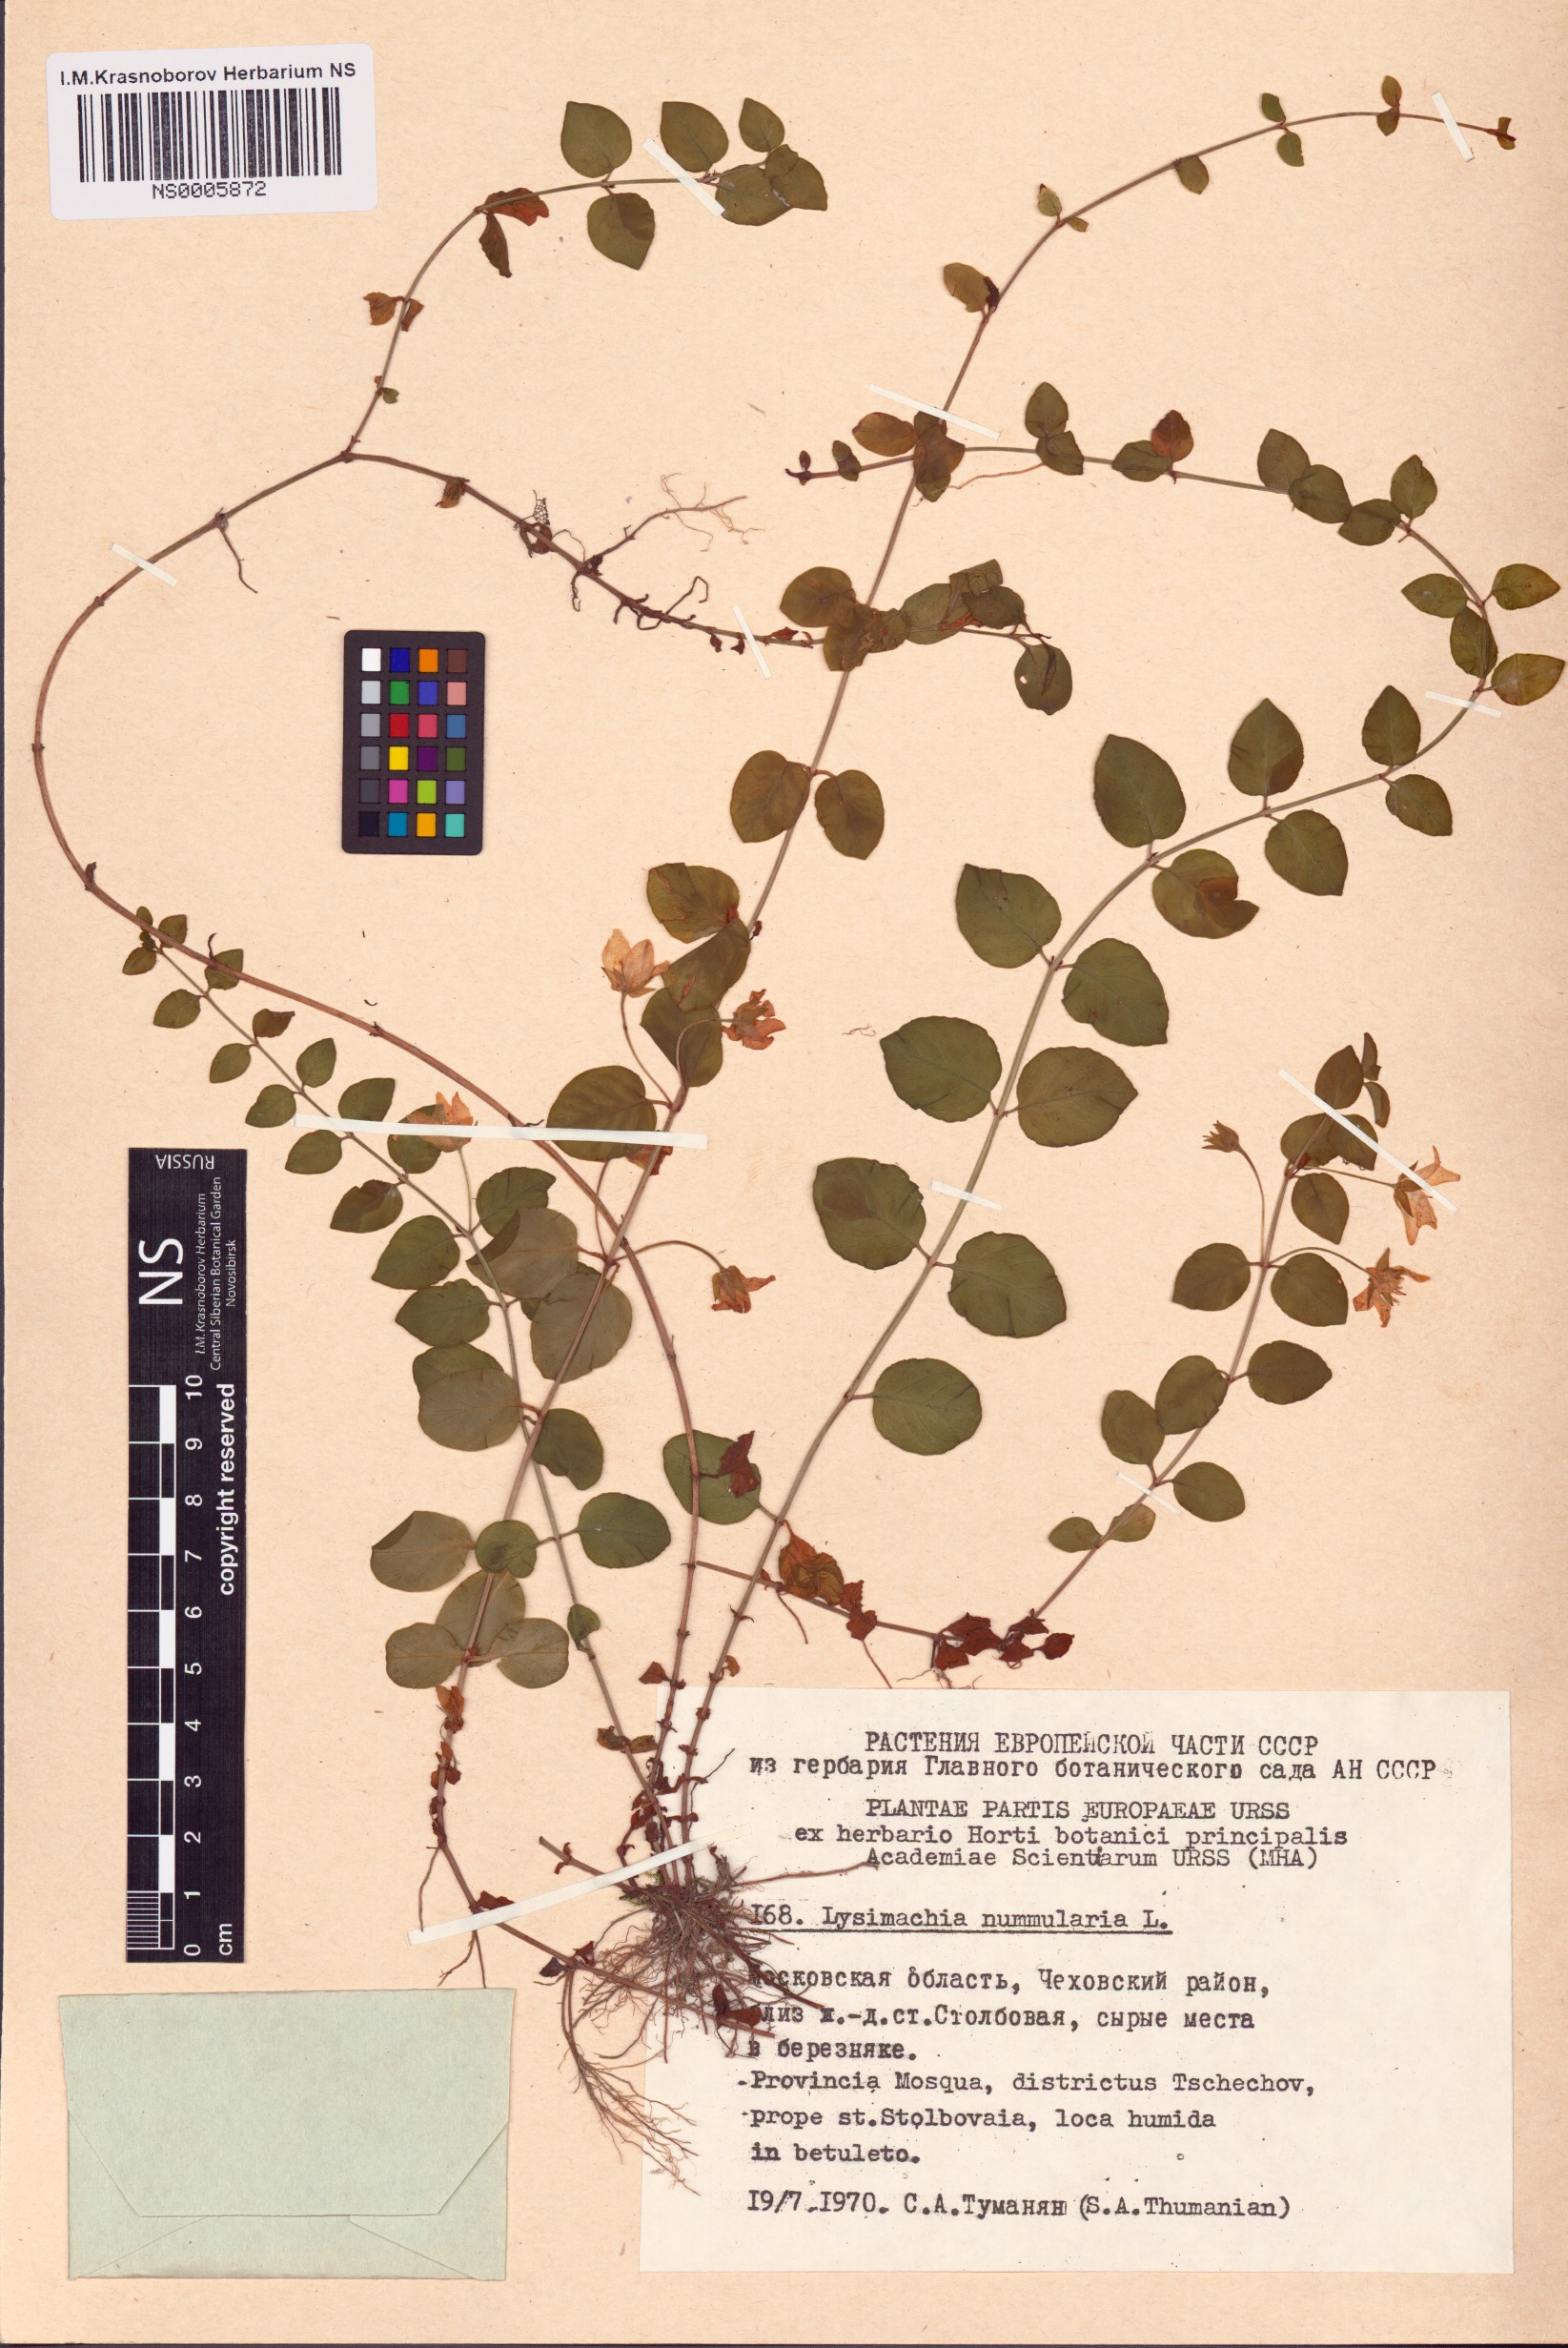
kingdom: Plantae
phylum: Tracheophyta
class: Magnoliopsida
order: Ericales
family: Primulaceae
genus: Lysimachia
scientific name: Lysimachia nummularia
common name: Moneywort
